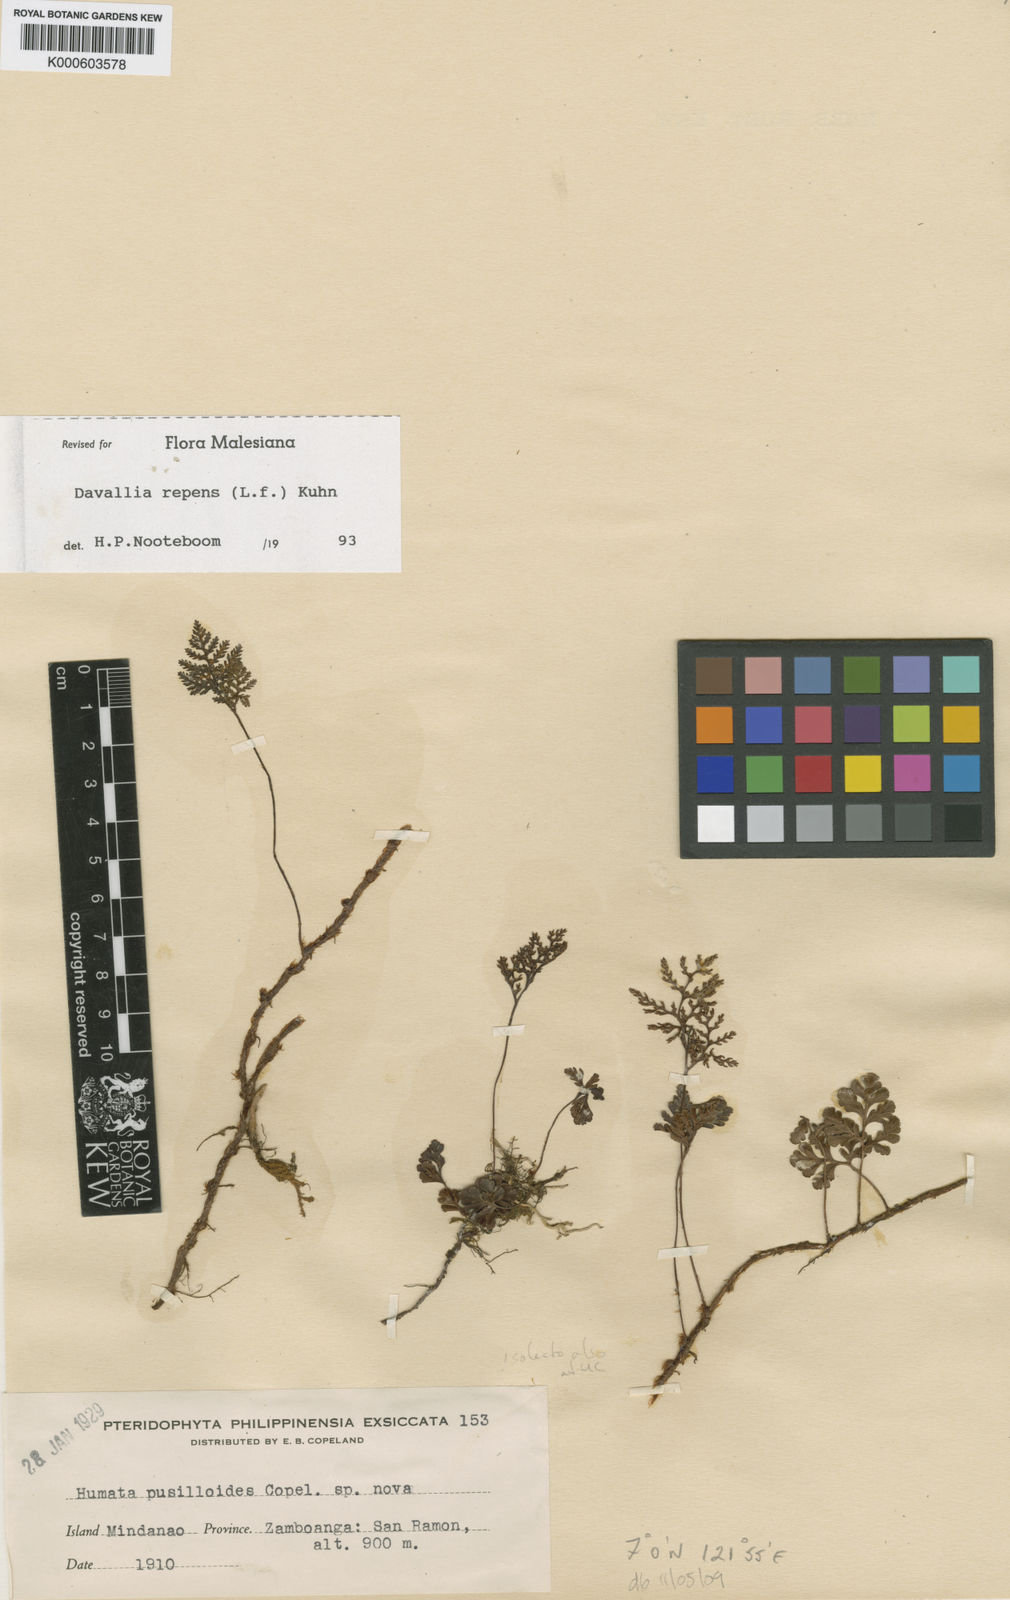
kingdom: Plantae
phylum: Tracheophyta
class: Polypodiopsida
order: Polypodiales
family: Davalliaceae
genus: Davallia
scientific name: Davallia
